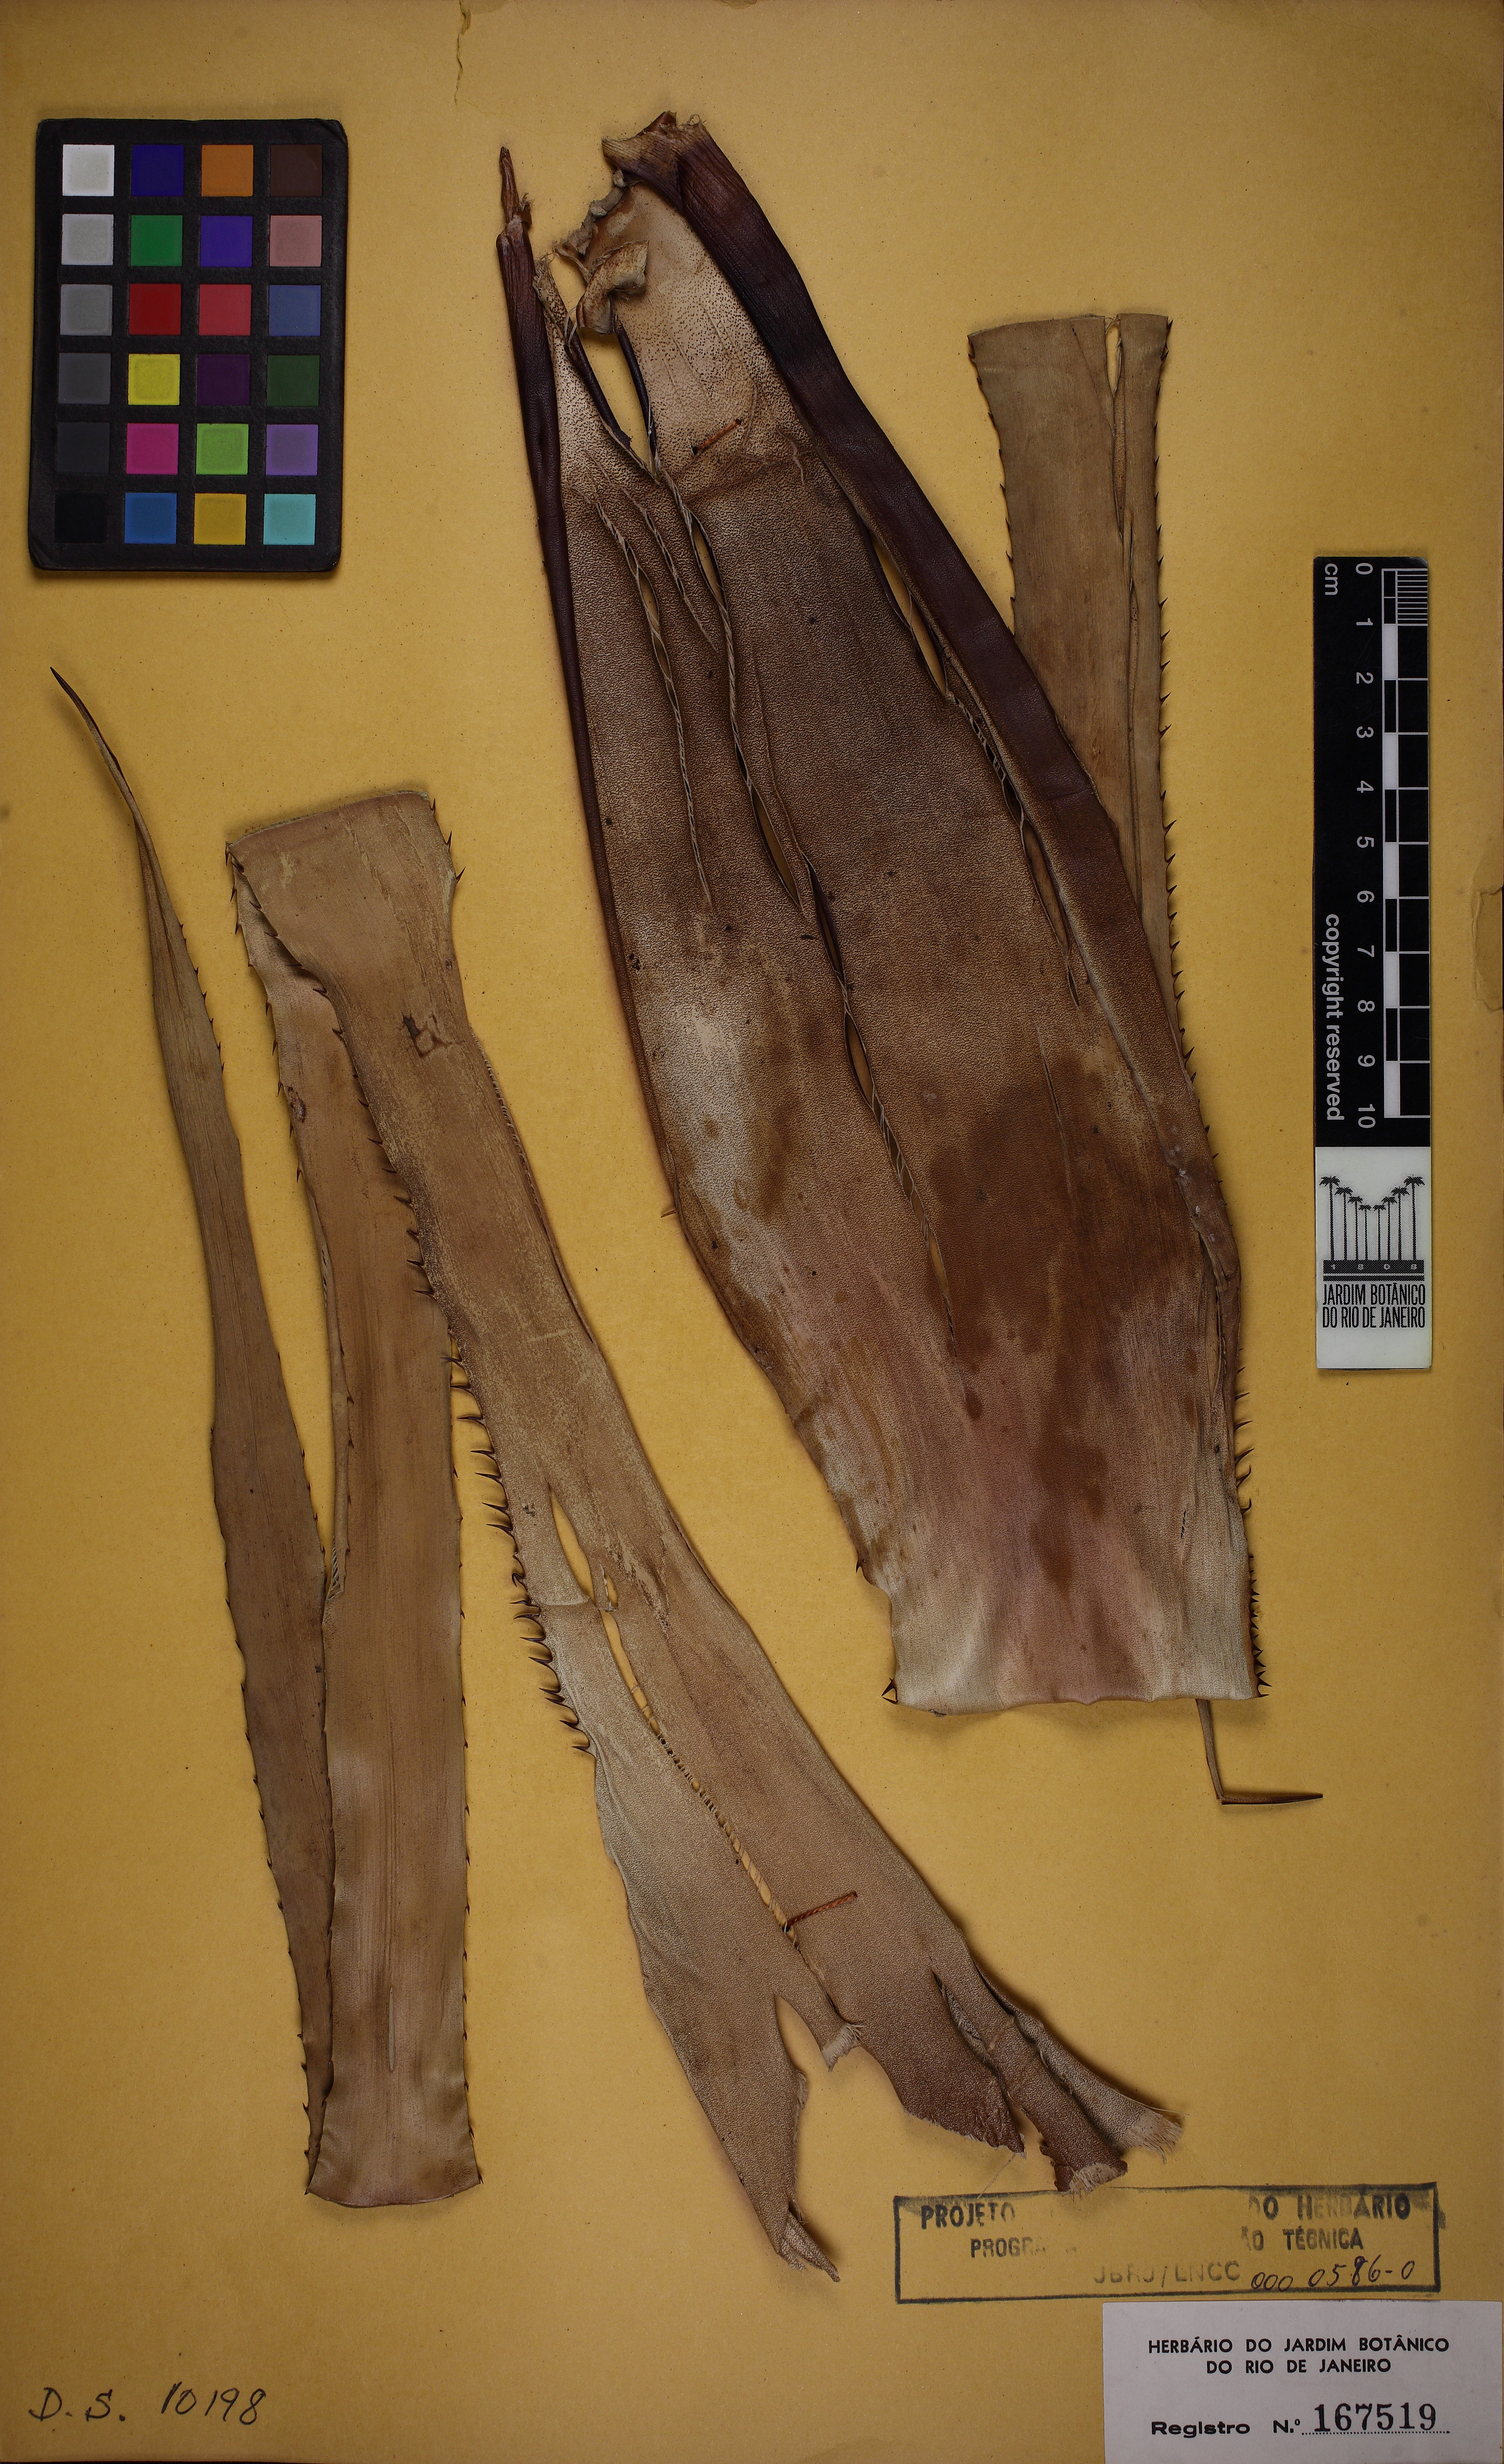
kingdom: Plantae
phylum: Tracheophyta
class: Liliopsida
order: Poales
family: Bromeliaceae
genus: Portea
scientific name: Portea petropolitana
